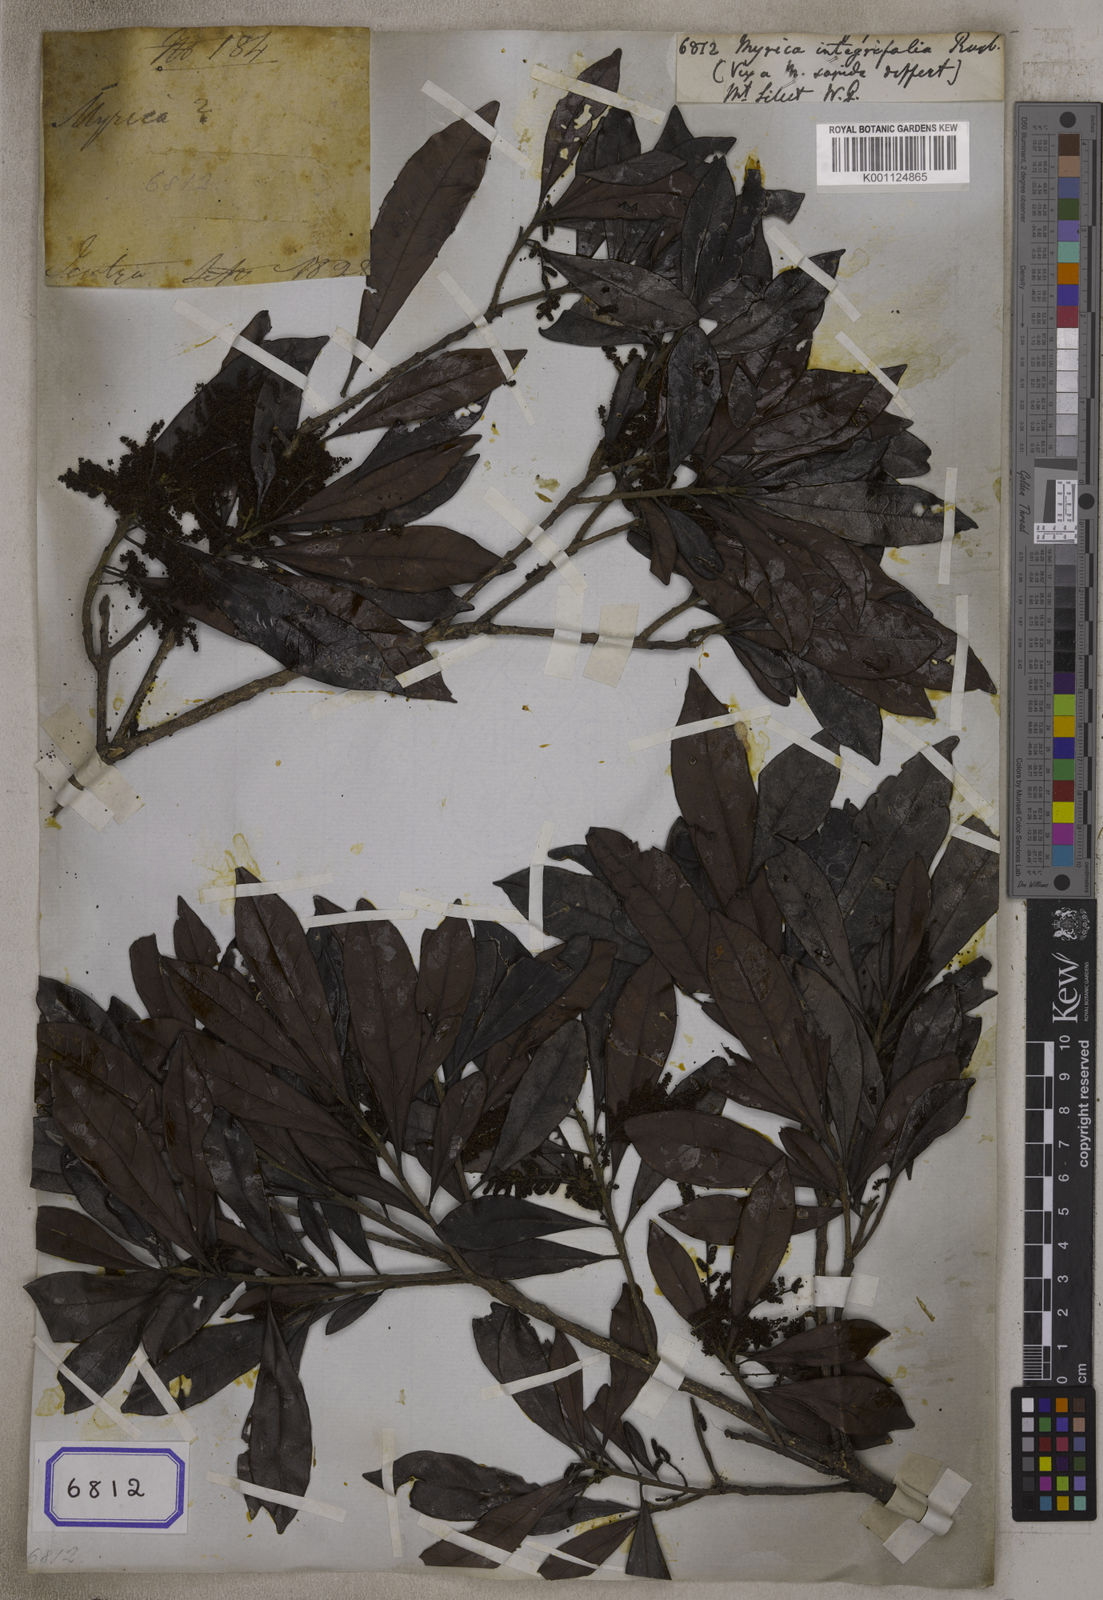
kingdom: Plantae
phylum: Tracheophyta
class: Magnoliopsida
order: Fagales
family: Myricaceae
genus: Morella
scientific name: Morella integrifolia
